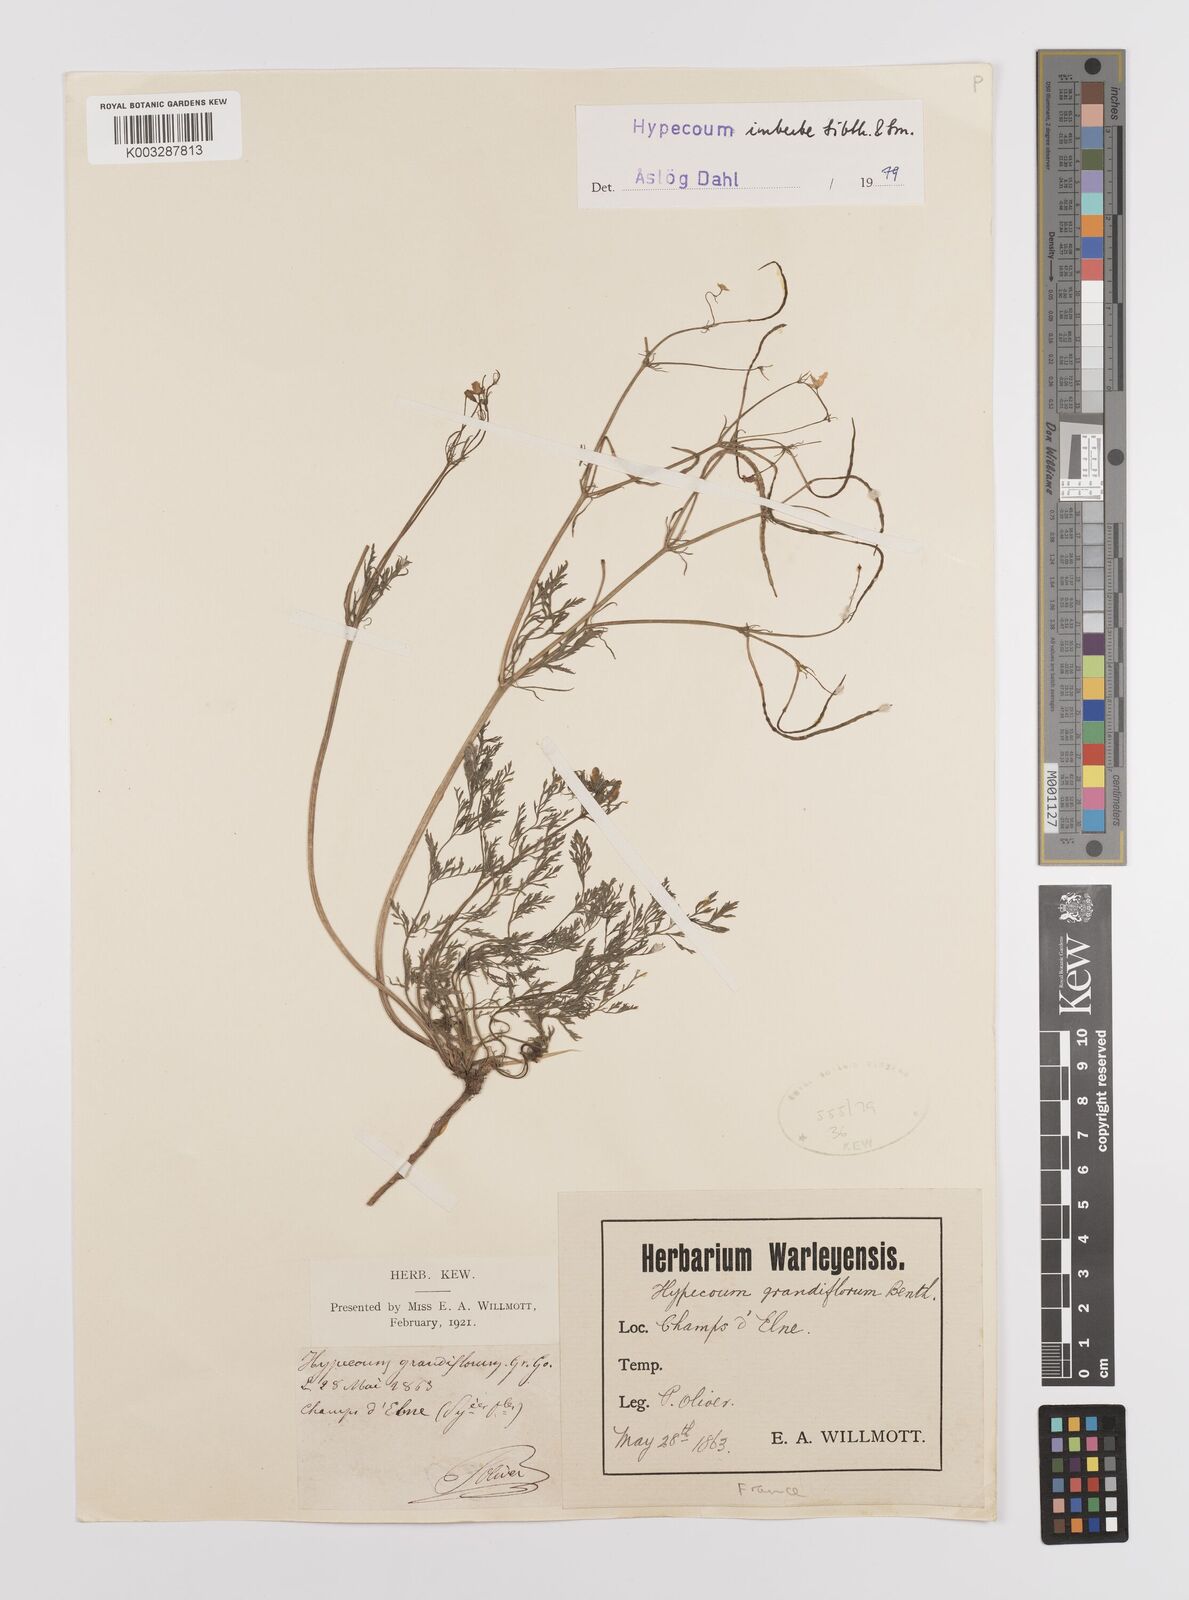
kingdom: Plantae
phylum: Tracheophyta
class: Magnoliopsida
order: Ranunculales
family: Papaveraceae
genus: Hypecoum
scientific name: Hypecoum imberbe
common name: Sicklefruit hypecoum
